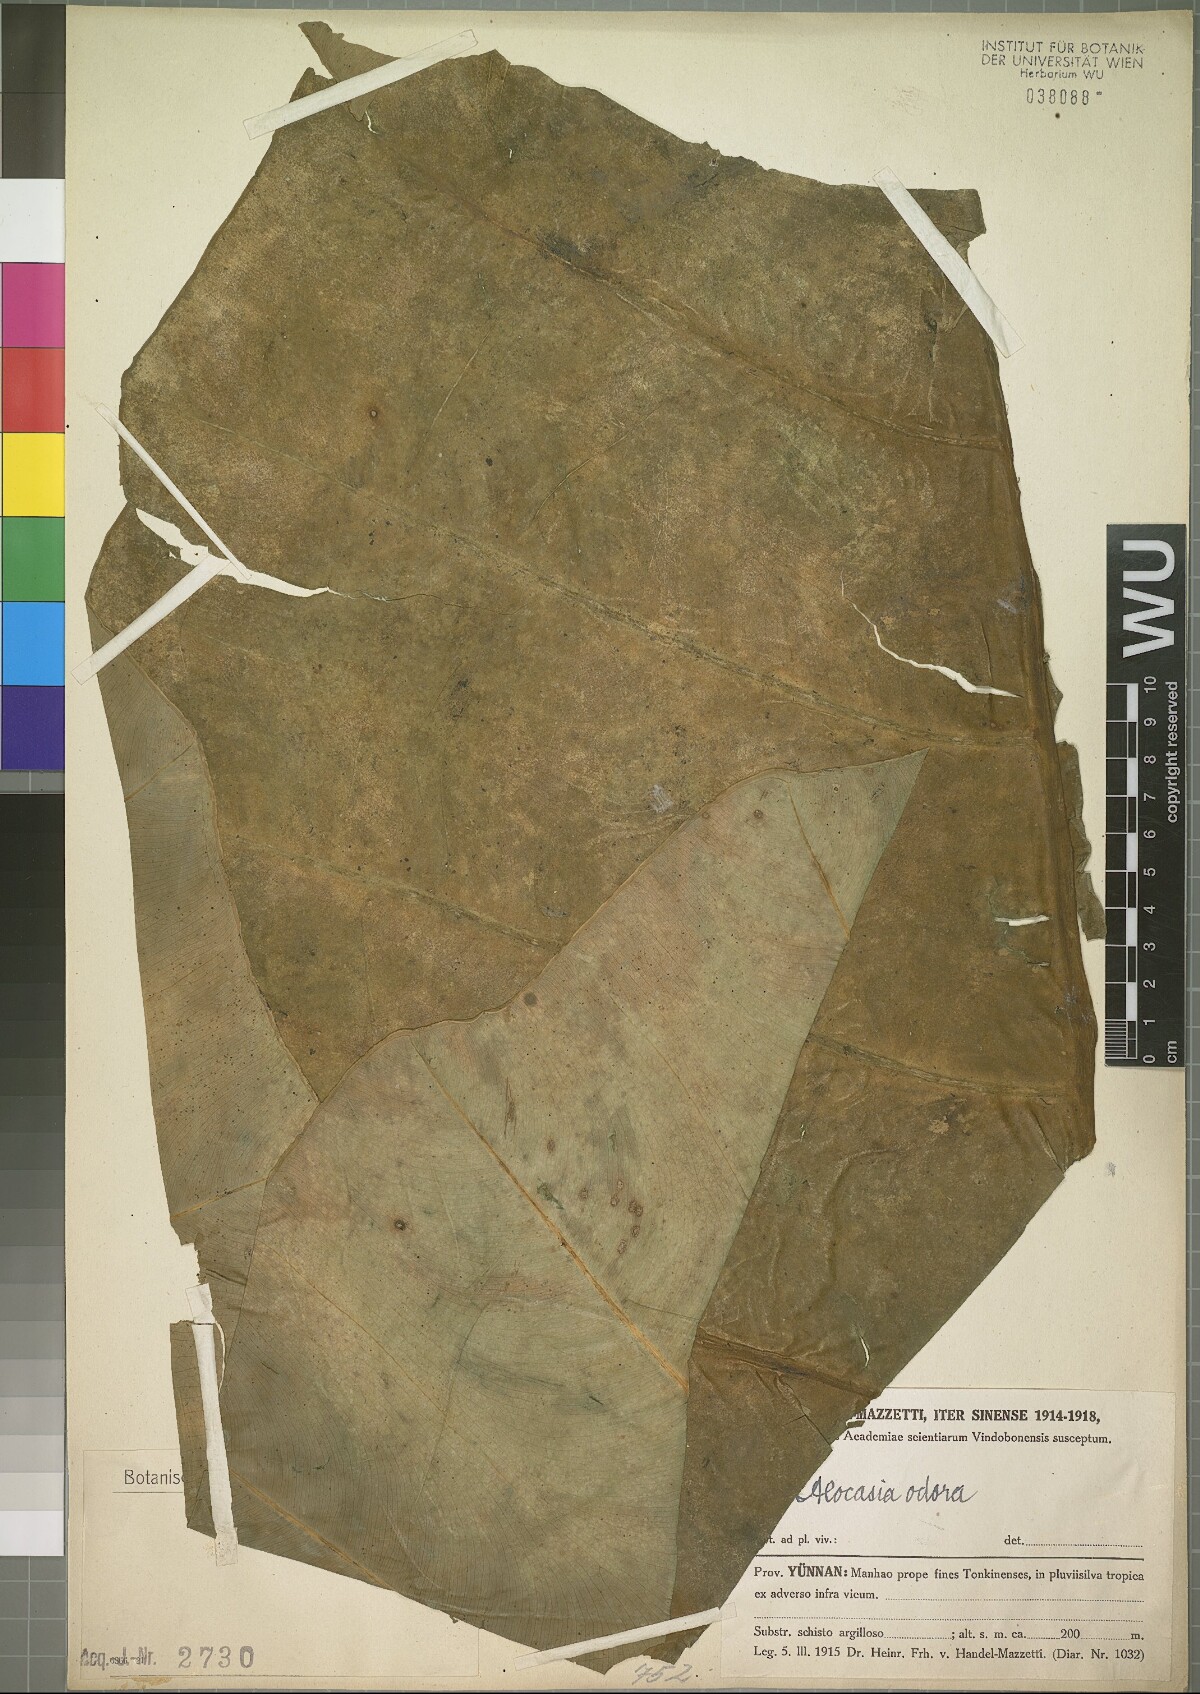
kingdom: Plantae
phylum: Tracheophyta
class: Liliopsida
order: Alismatales
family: Araceae
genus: Alocasia
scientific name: Alocasia odora
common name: Asian taro
